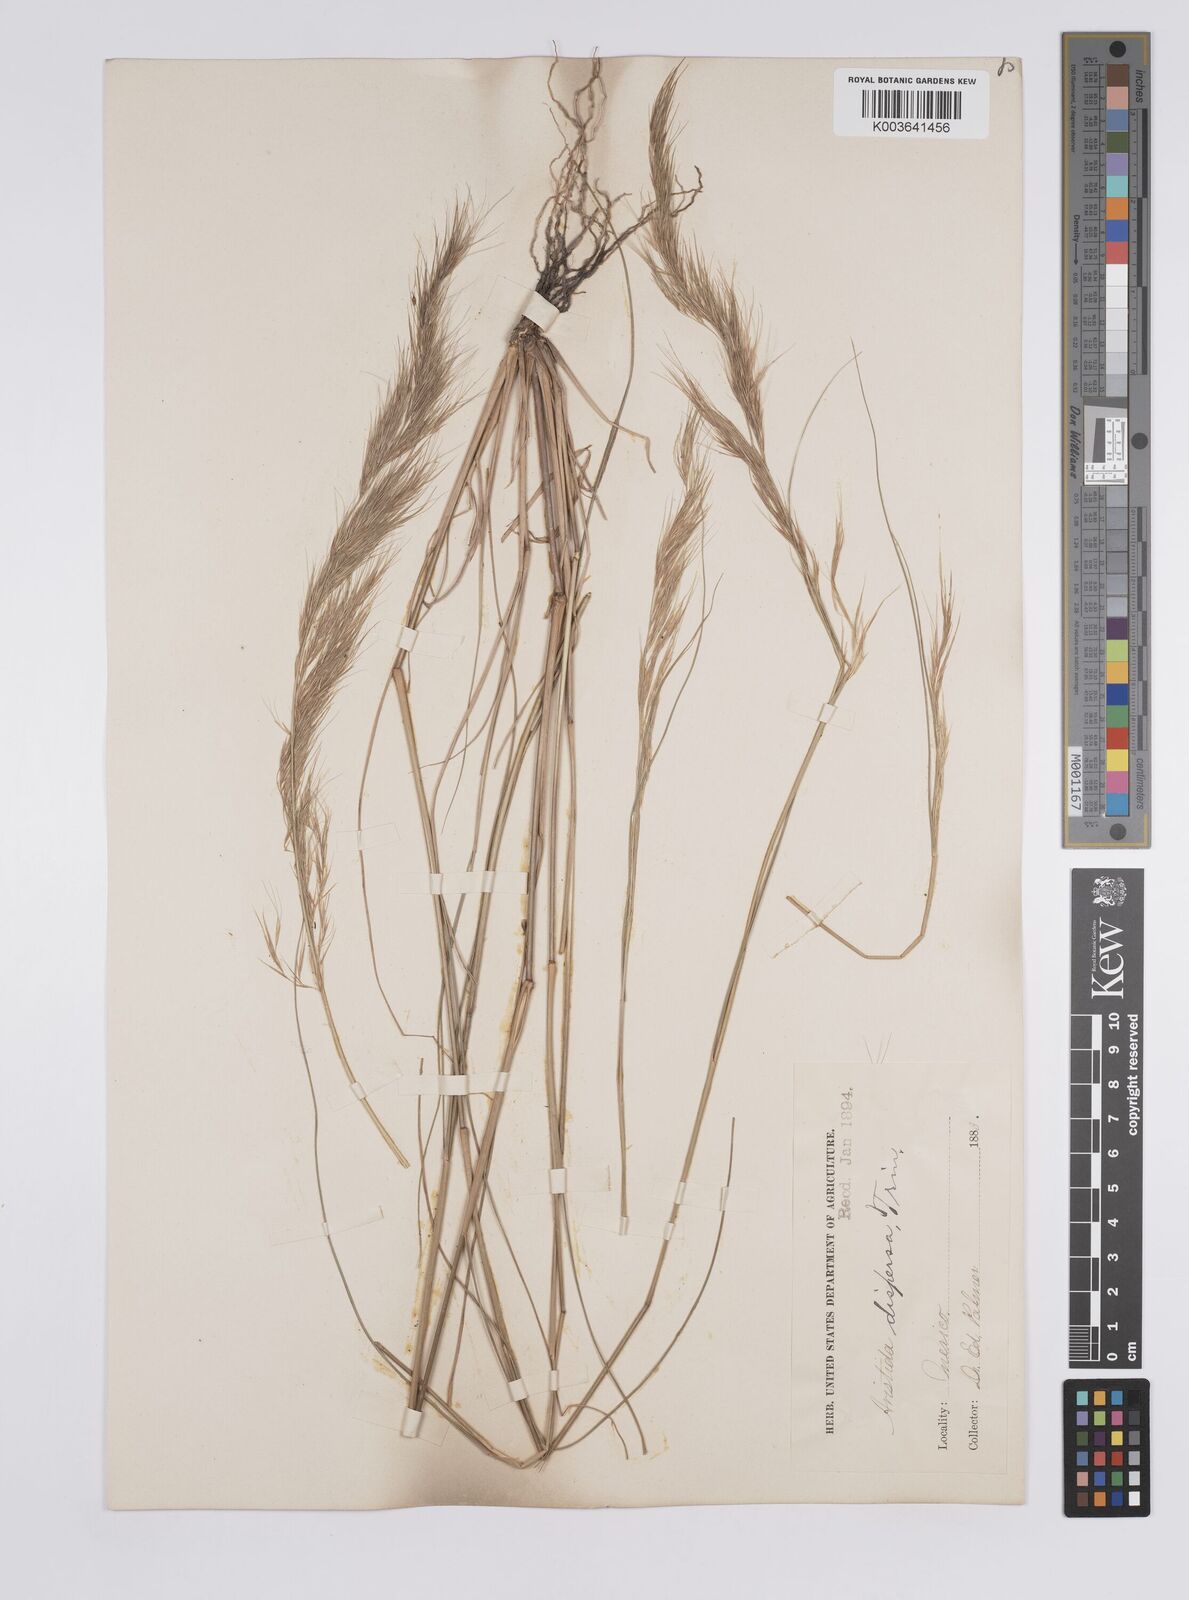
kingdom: Plantae
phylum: Tracheophyta
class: Liliopsida
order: Poales
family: Poaceae
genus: Aristida
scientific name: Aristida adscensionis
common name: Sixweeks threeawn
